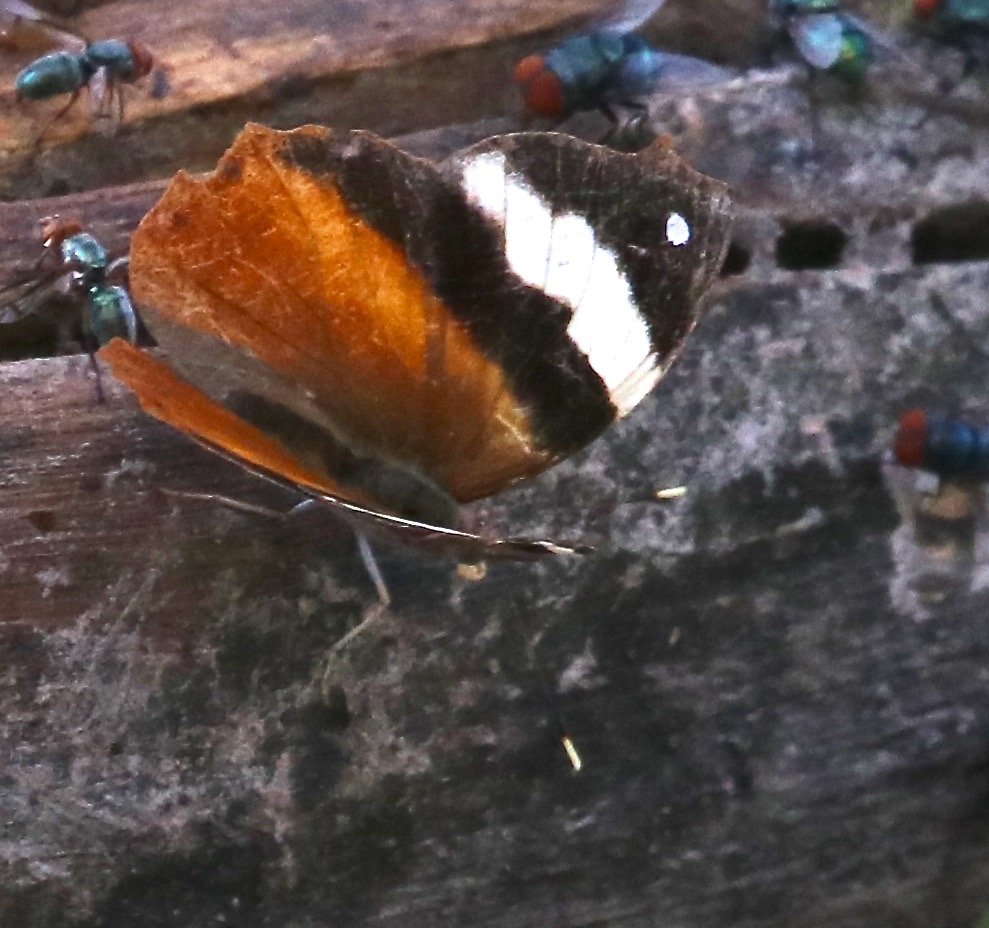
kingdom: Animalia
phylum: Arthropoda
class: Insecta
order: Lepidoptera
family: Nymphalidae
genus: Epiphile
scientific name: Epiphile adrasta
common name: Common Banner
